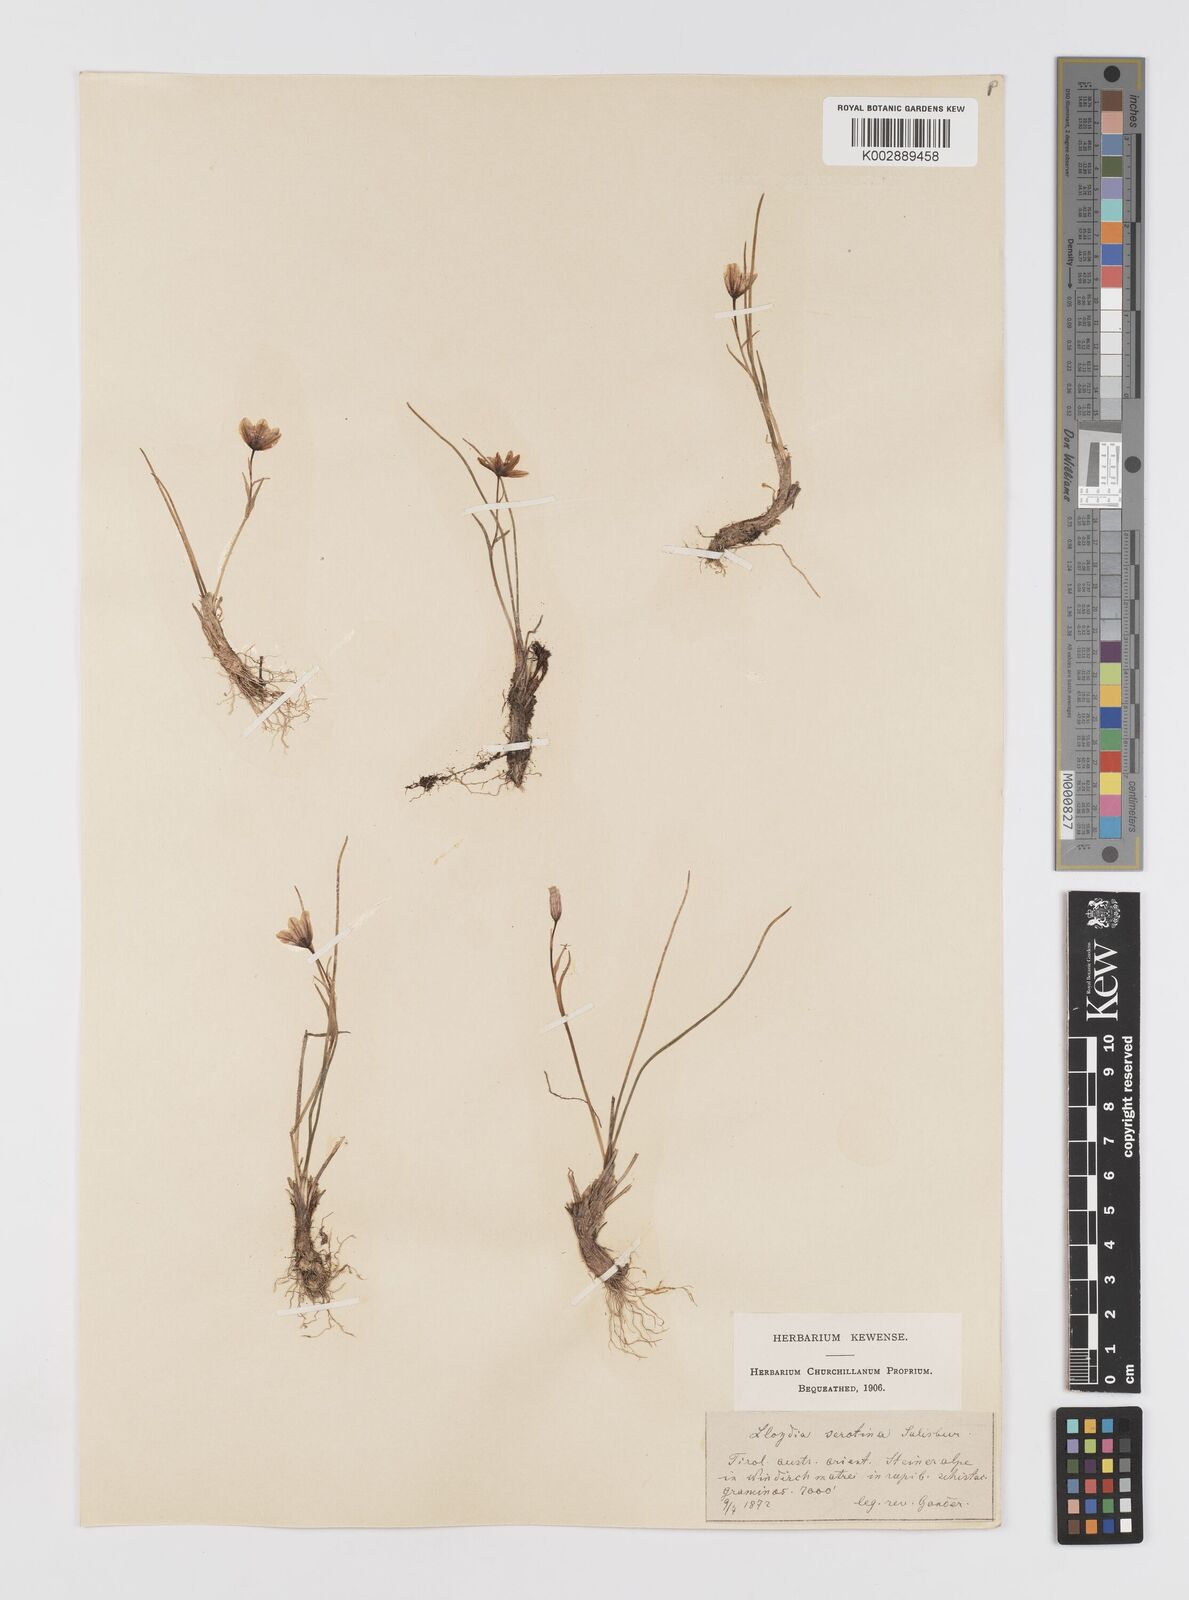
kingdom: Plantae
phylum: Tracheophyta
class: Liliopsida
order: Liliales
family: Liliaceae
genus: Gagea
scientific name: Gagea
